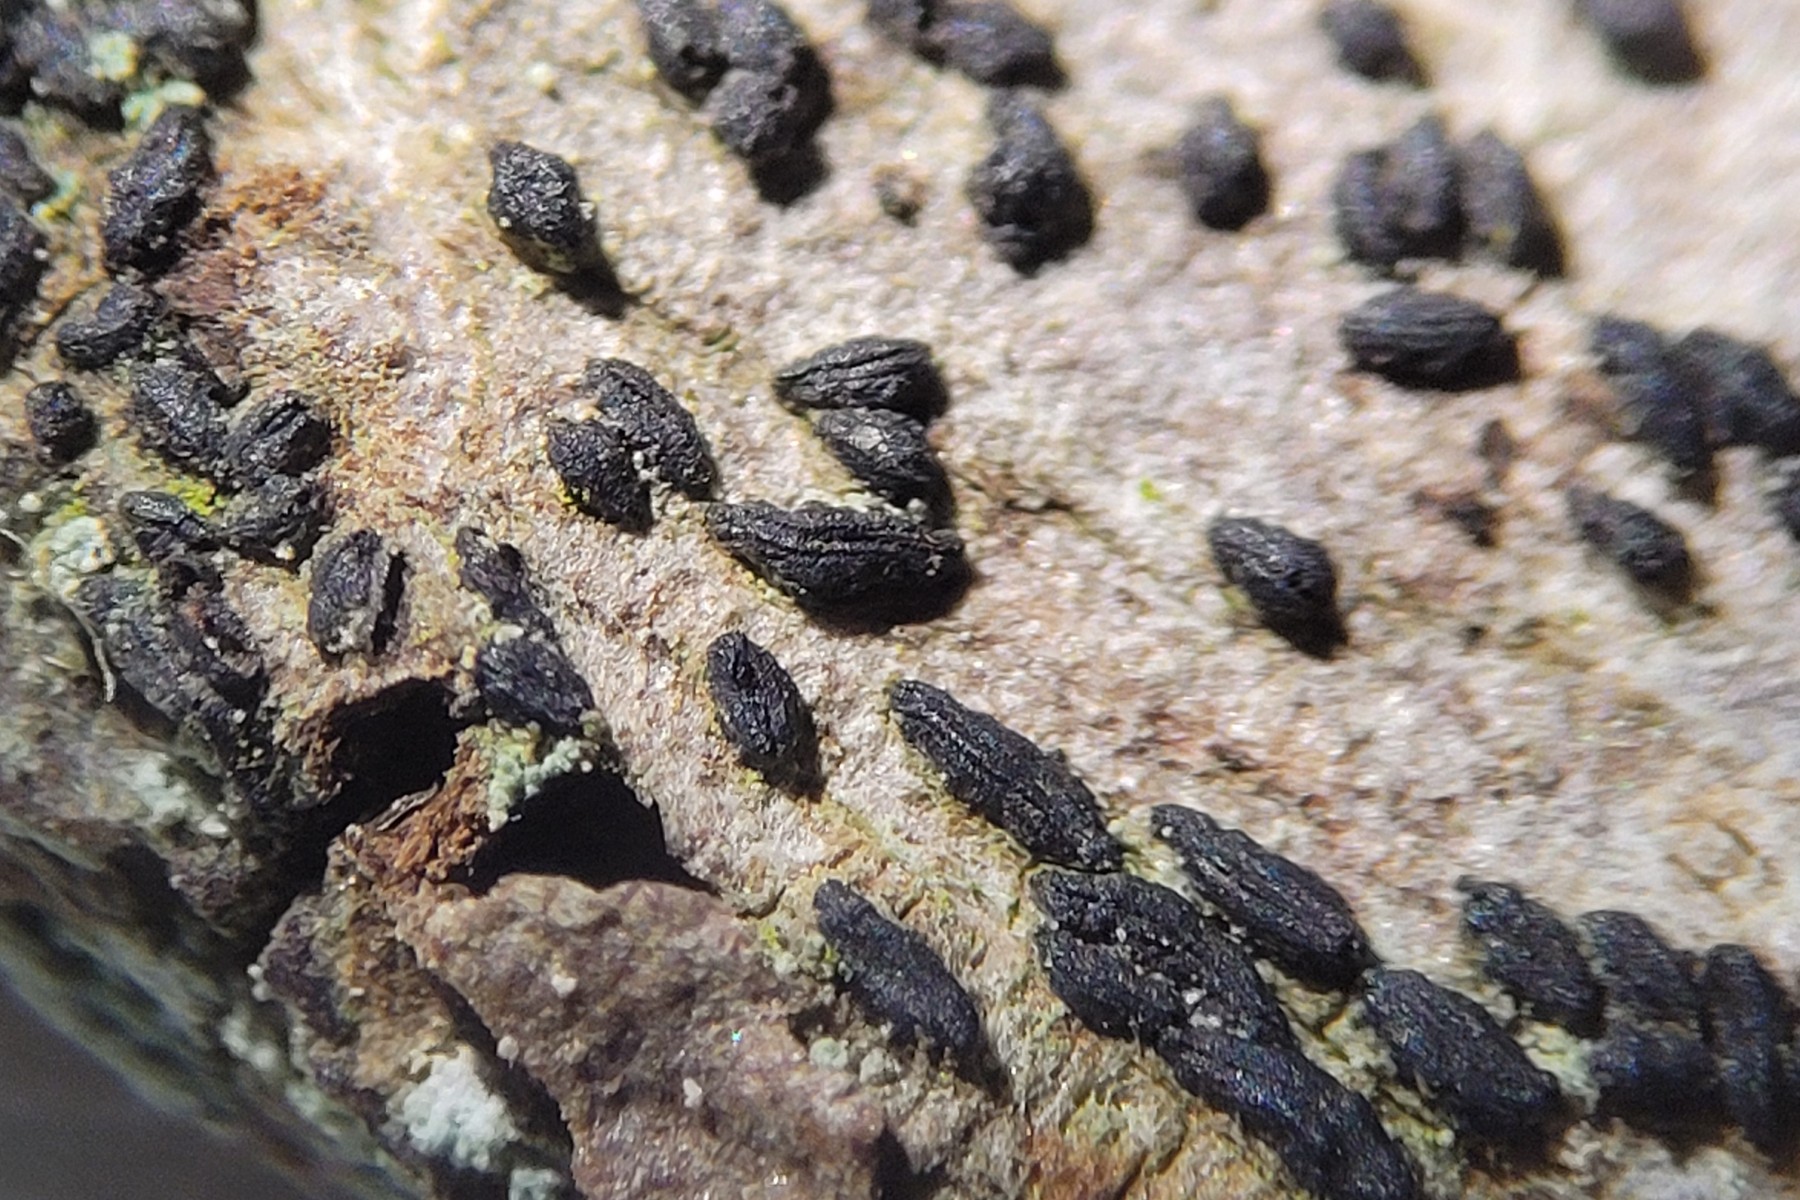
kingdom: Fungi
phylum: Ascomycota
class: Dothideomycetes
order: Hysteriales
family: Hysteriaceae
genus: Hysterium
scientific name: Hysterium
